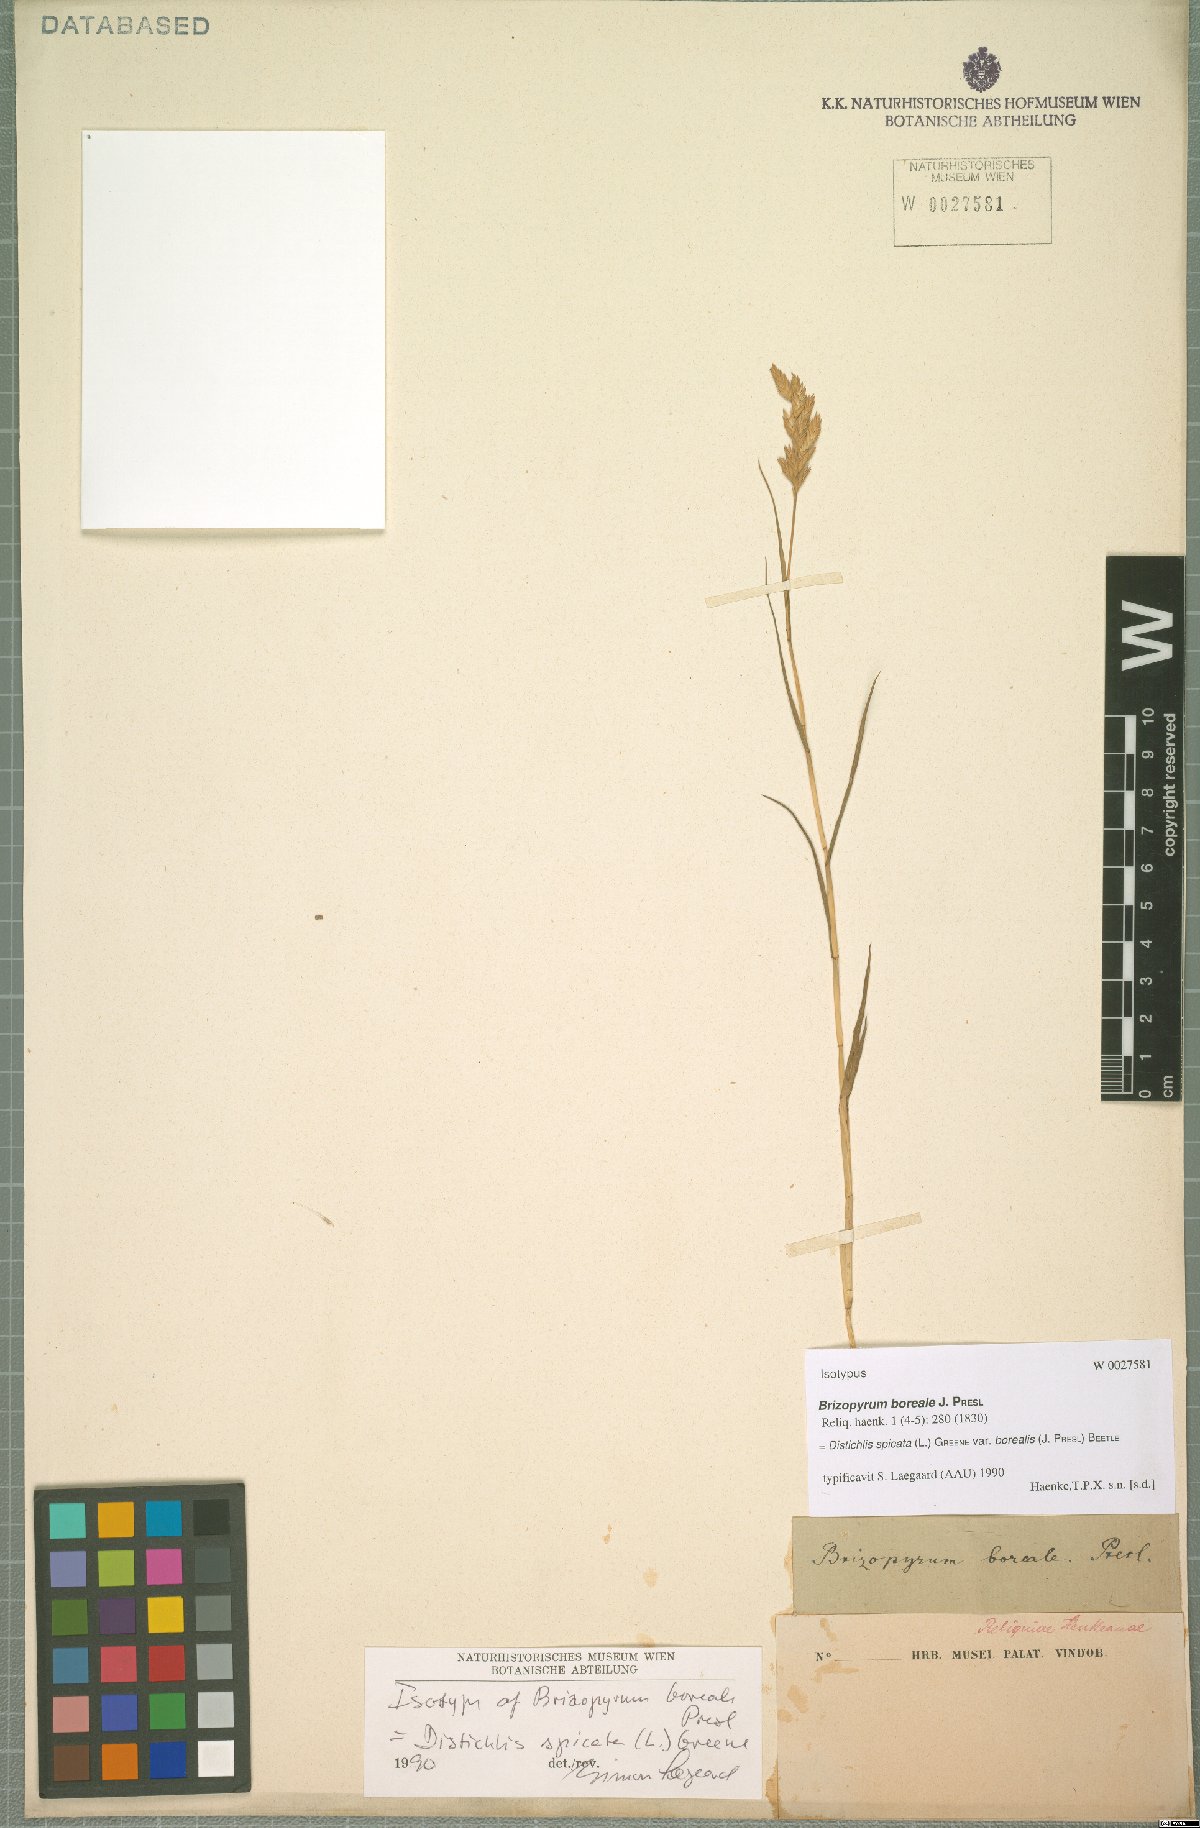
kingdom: Plantae
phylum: Tracheophyta
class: Liliopsida
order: Poales
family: Poaceae
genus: Distichlis
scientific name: Distichlis spicata
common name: Saltgrass
